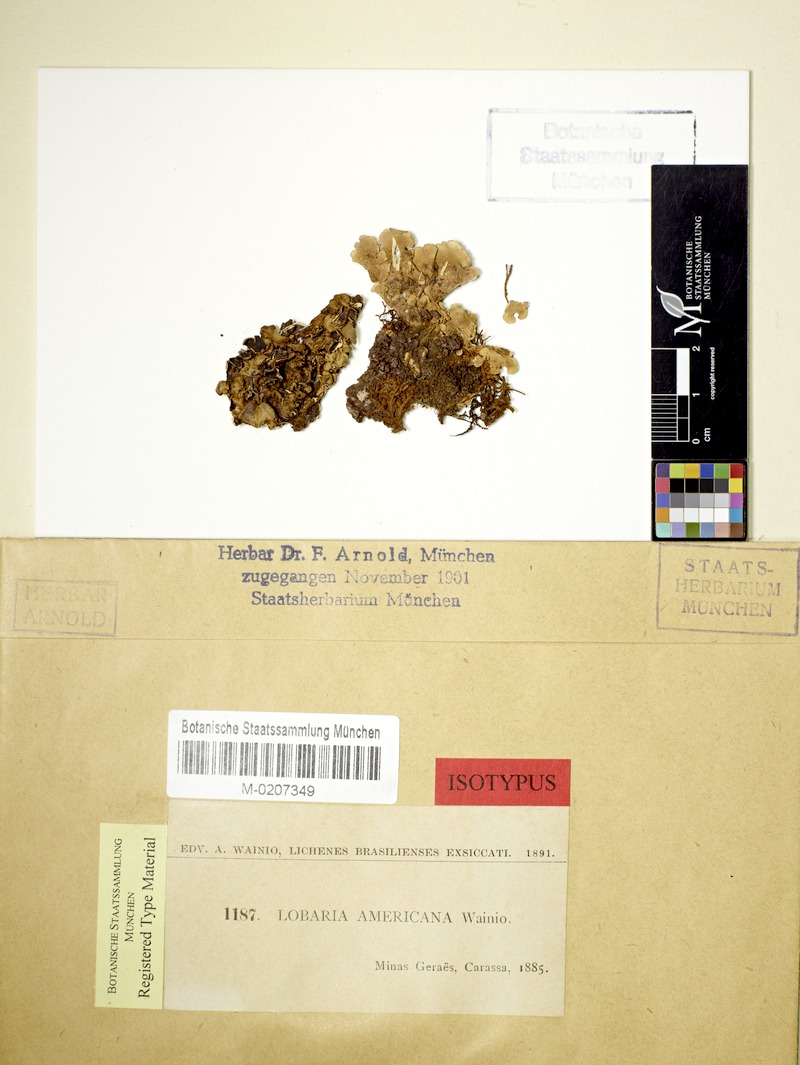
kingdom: Fungi
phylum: Ascomycota
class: Lecanoromycetes
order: Peltigerales
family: Peltigeraceae
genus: Emmanuelia
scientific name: Emmanuelia americana
